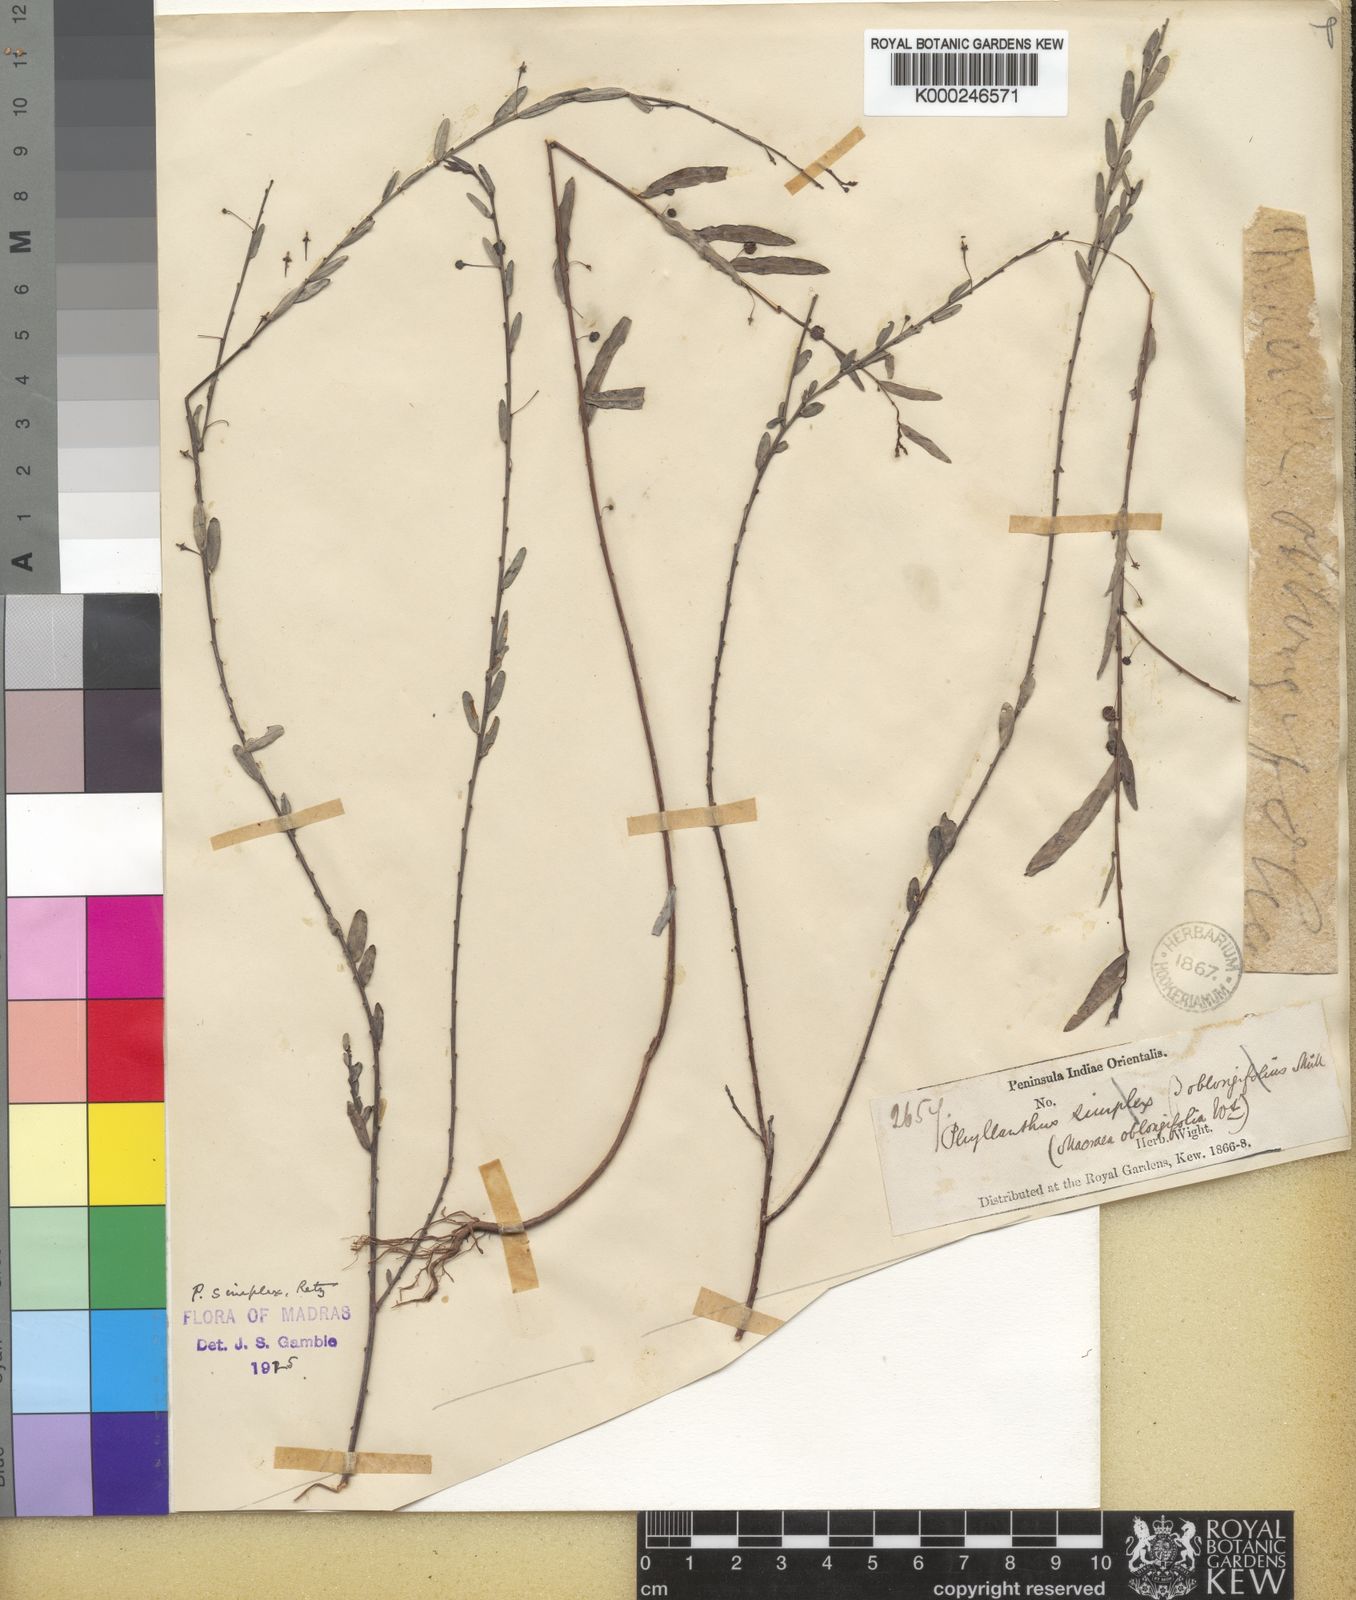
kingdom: Plantae
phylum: Tracheophyta
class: Magnoliopsida
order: Malpighiales
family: Phyllanthaceae
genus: Phyllanthus
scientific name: Phyllanthus virgatus
